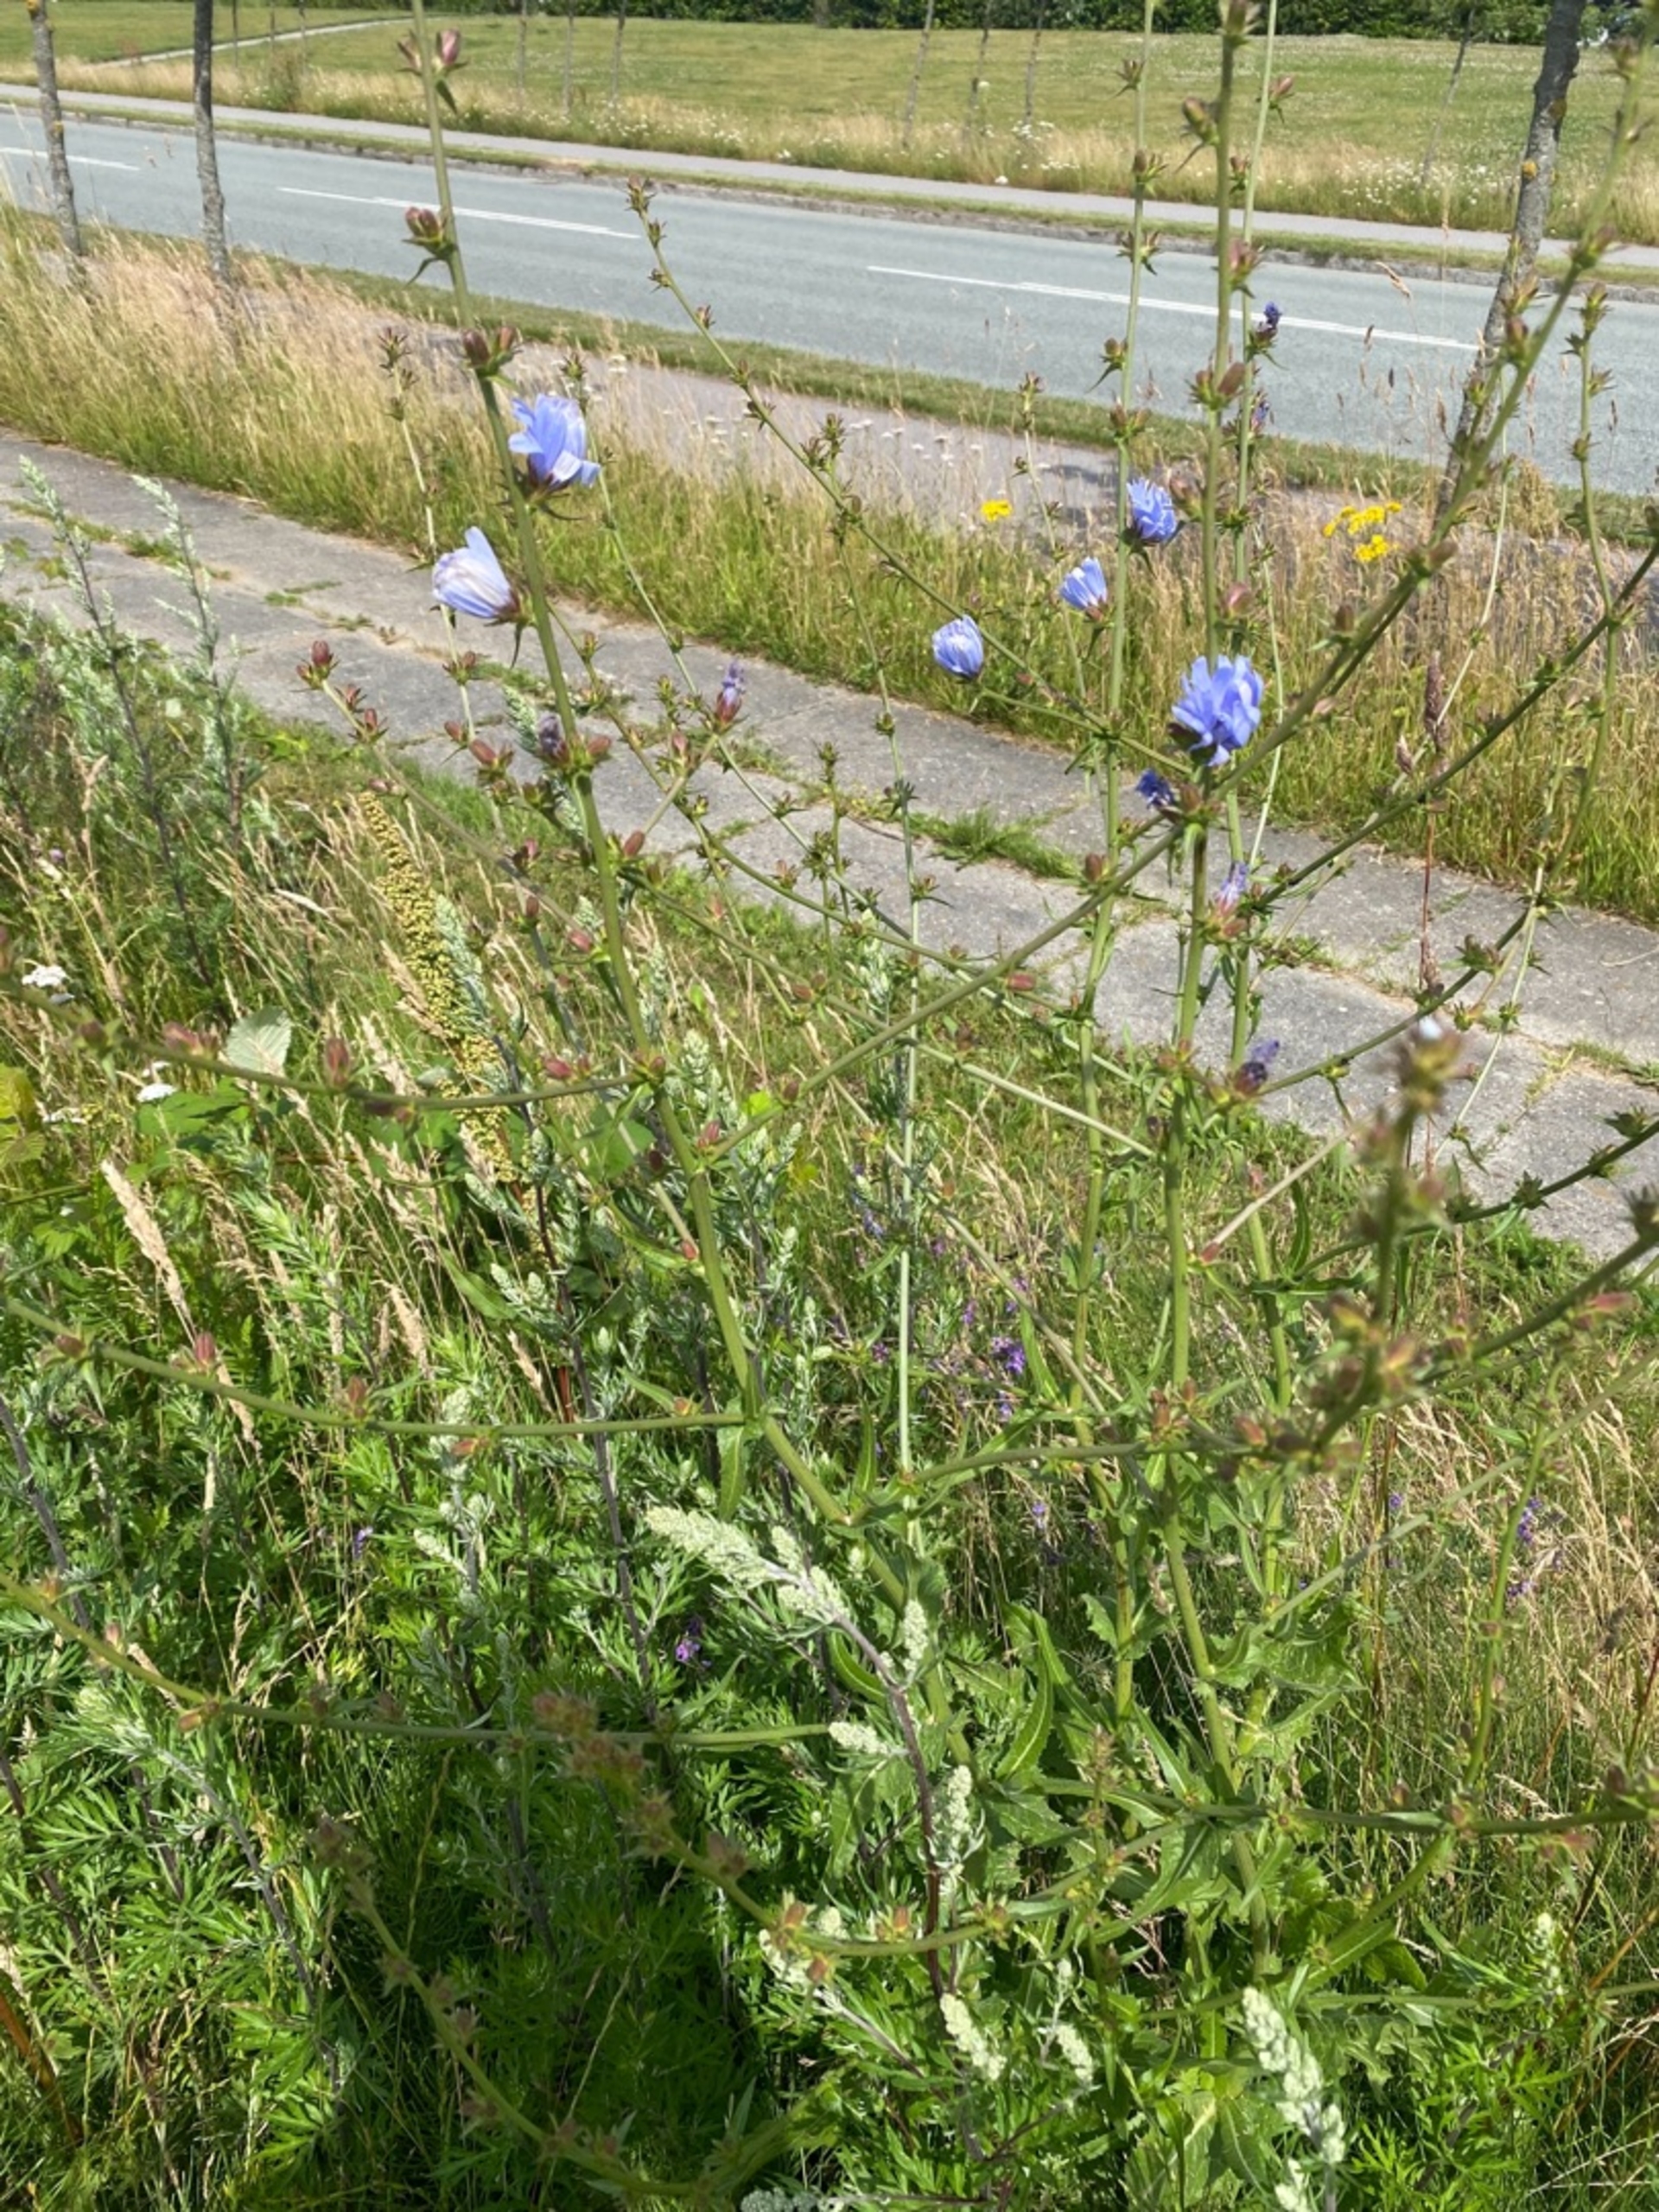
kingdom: Plantae
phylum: Tracheophyta
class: Magnoliopsida
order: Asterales
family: Asteraceae
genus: Cichorium
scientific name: Cichorium intybus
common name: Cikorie
